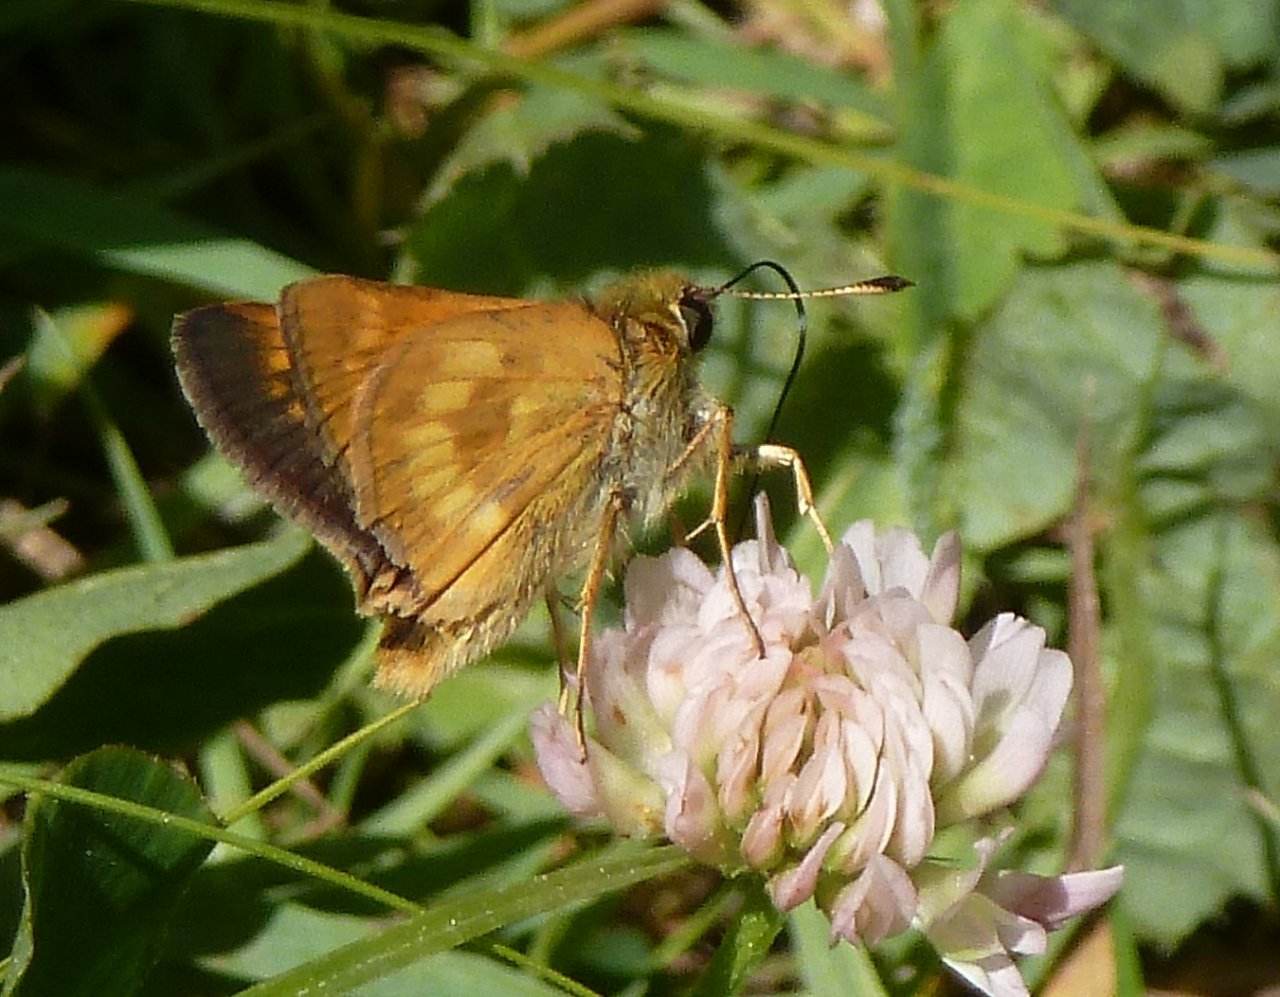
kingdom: Animalia
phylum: Arthropoda
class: Insecta
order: Lepidoptera
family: Hesperiidae
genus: Polites
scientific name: Polites
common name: Long Dash Skipper
